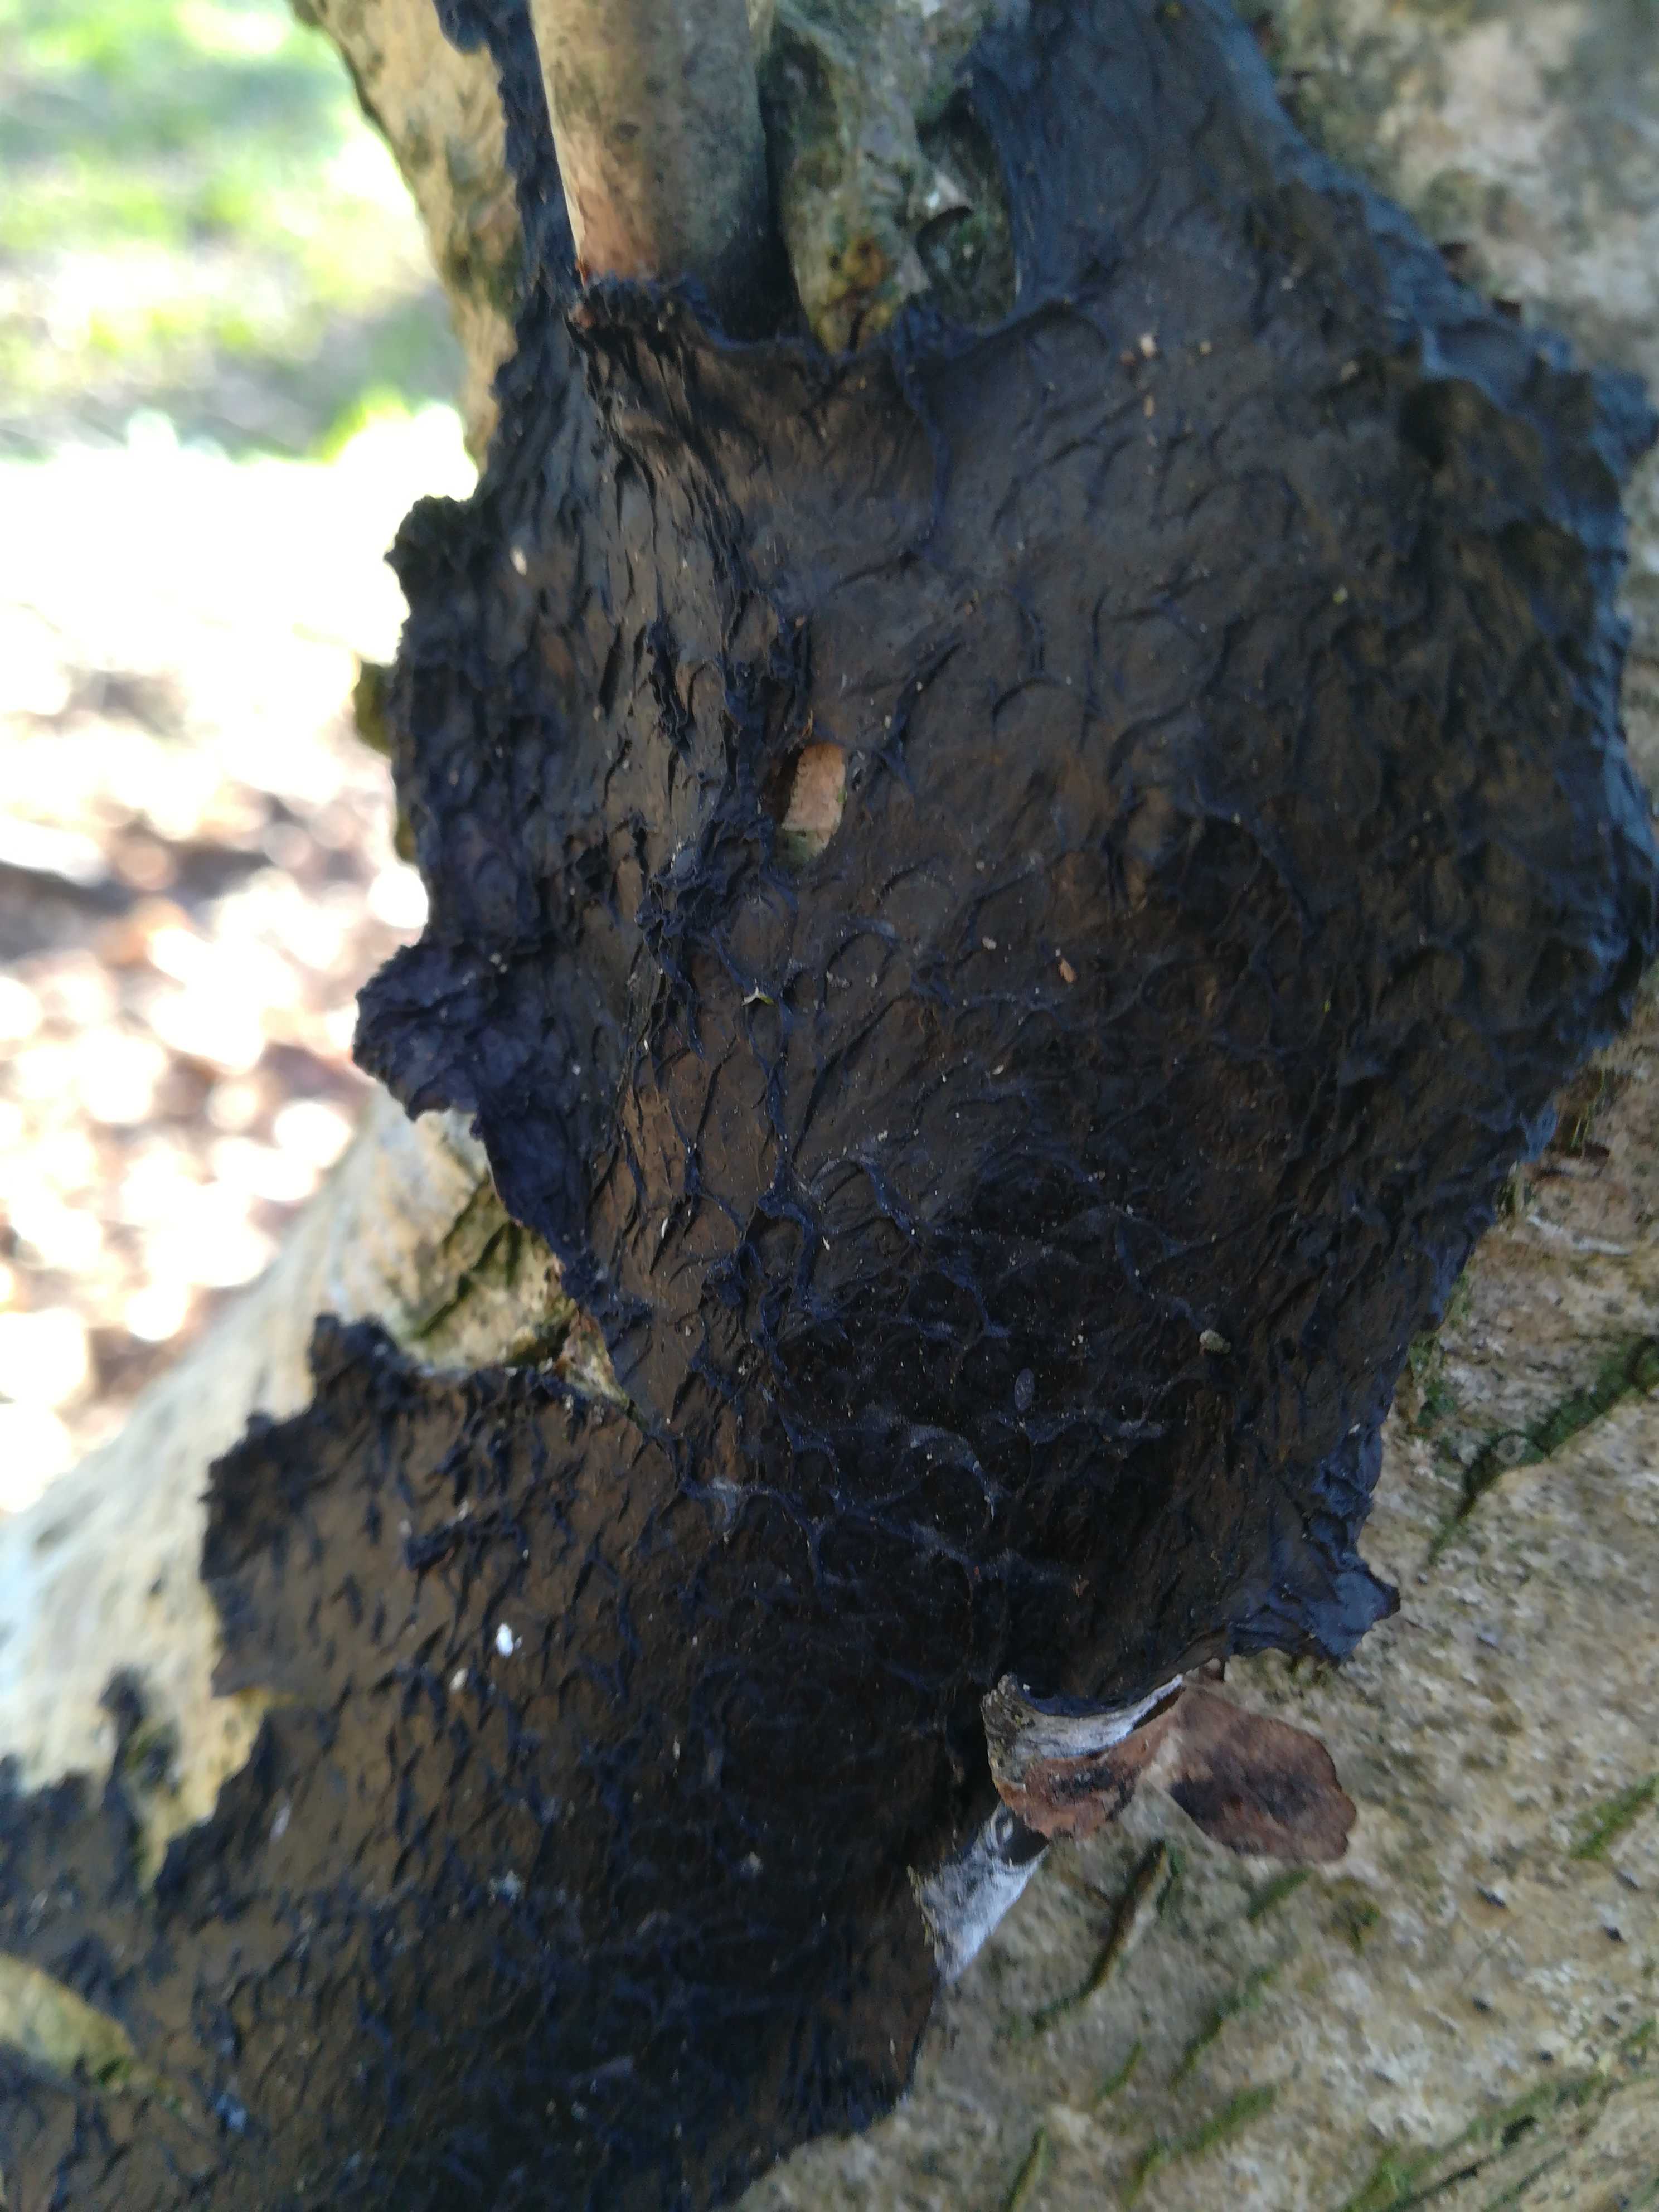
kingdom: Fungi
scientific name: Fungi
